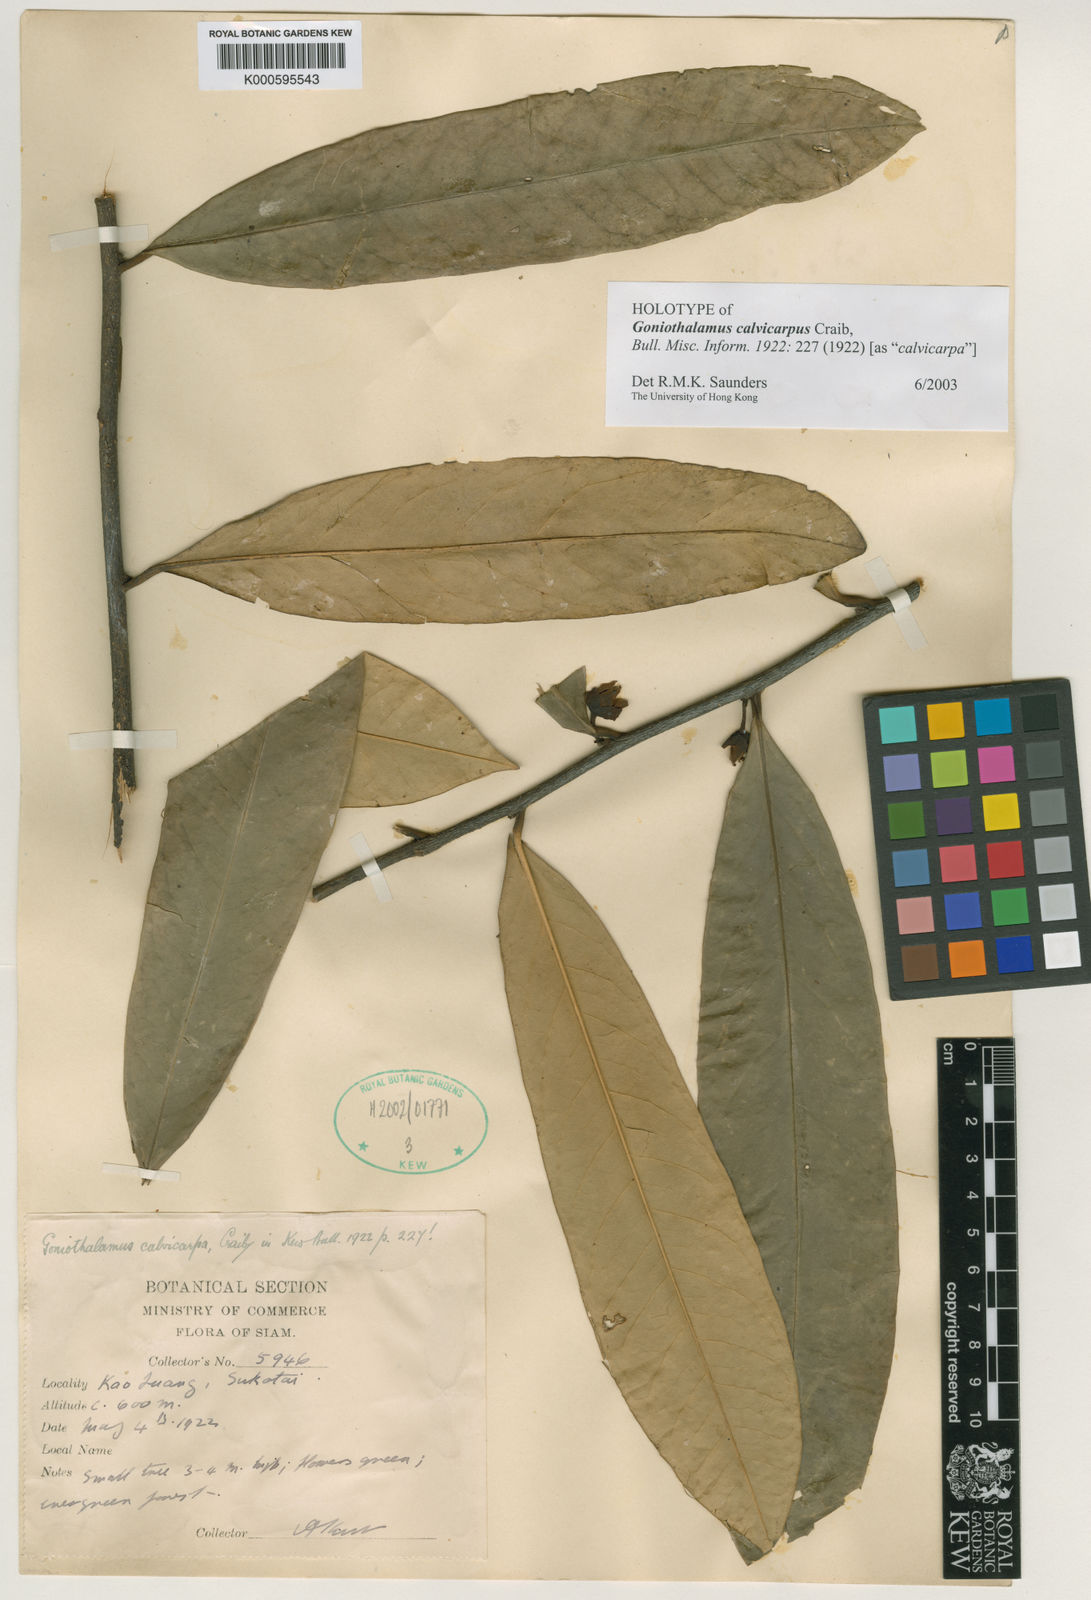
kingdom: Plantae
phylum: Tracheophyta
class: Magnoliopsida
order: Magnoliales
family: Annonaceae
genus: Goniothalamus
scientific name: Goniothalamus calvicarpus
